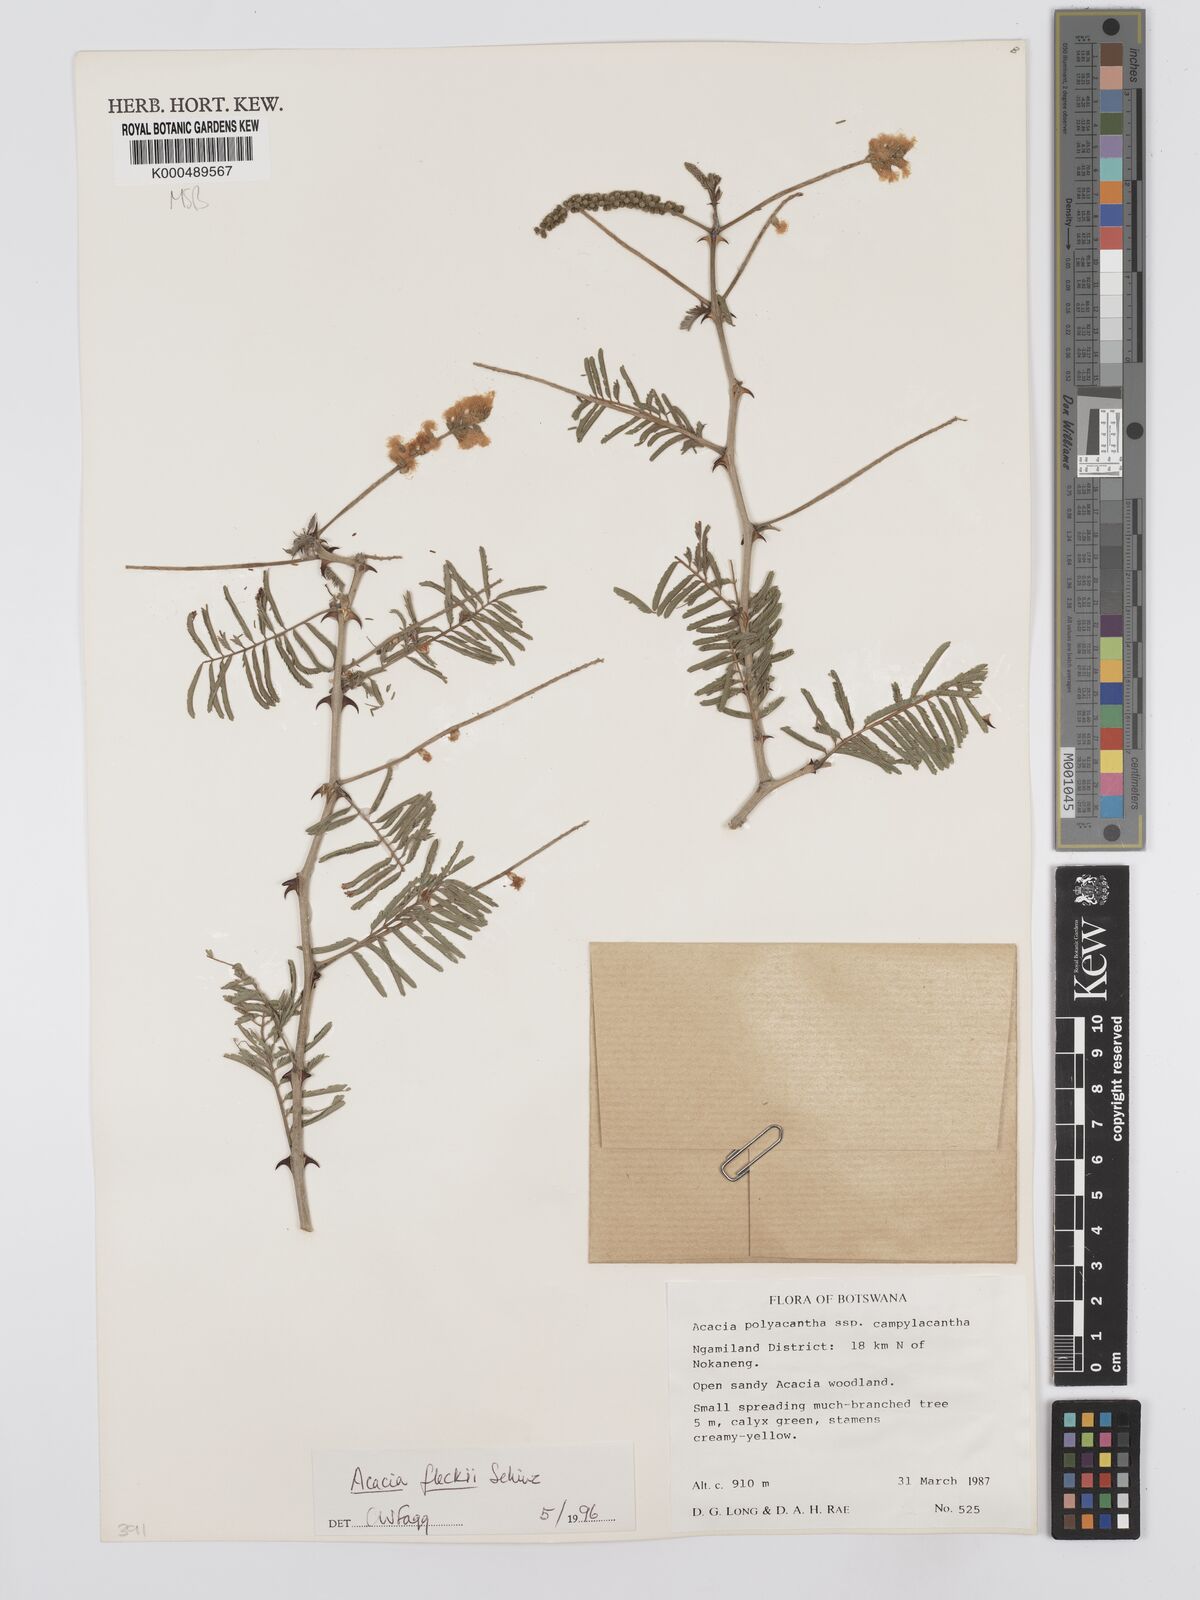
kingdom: Plantae
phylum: Tracheophyta
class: Magnoliopsida
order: Fabales
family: Fabaceae
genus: Senegalia
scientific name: Senegalia fleckii
